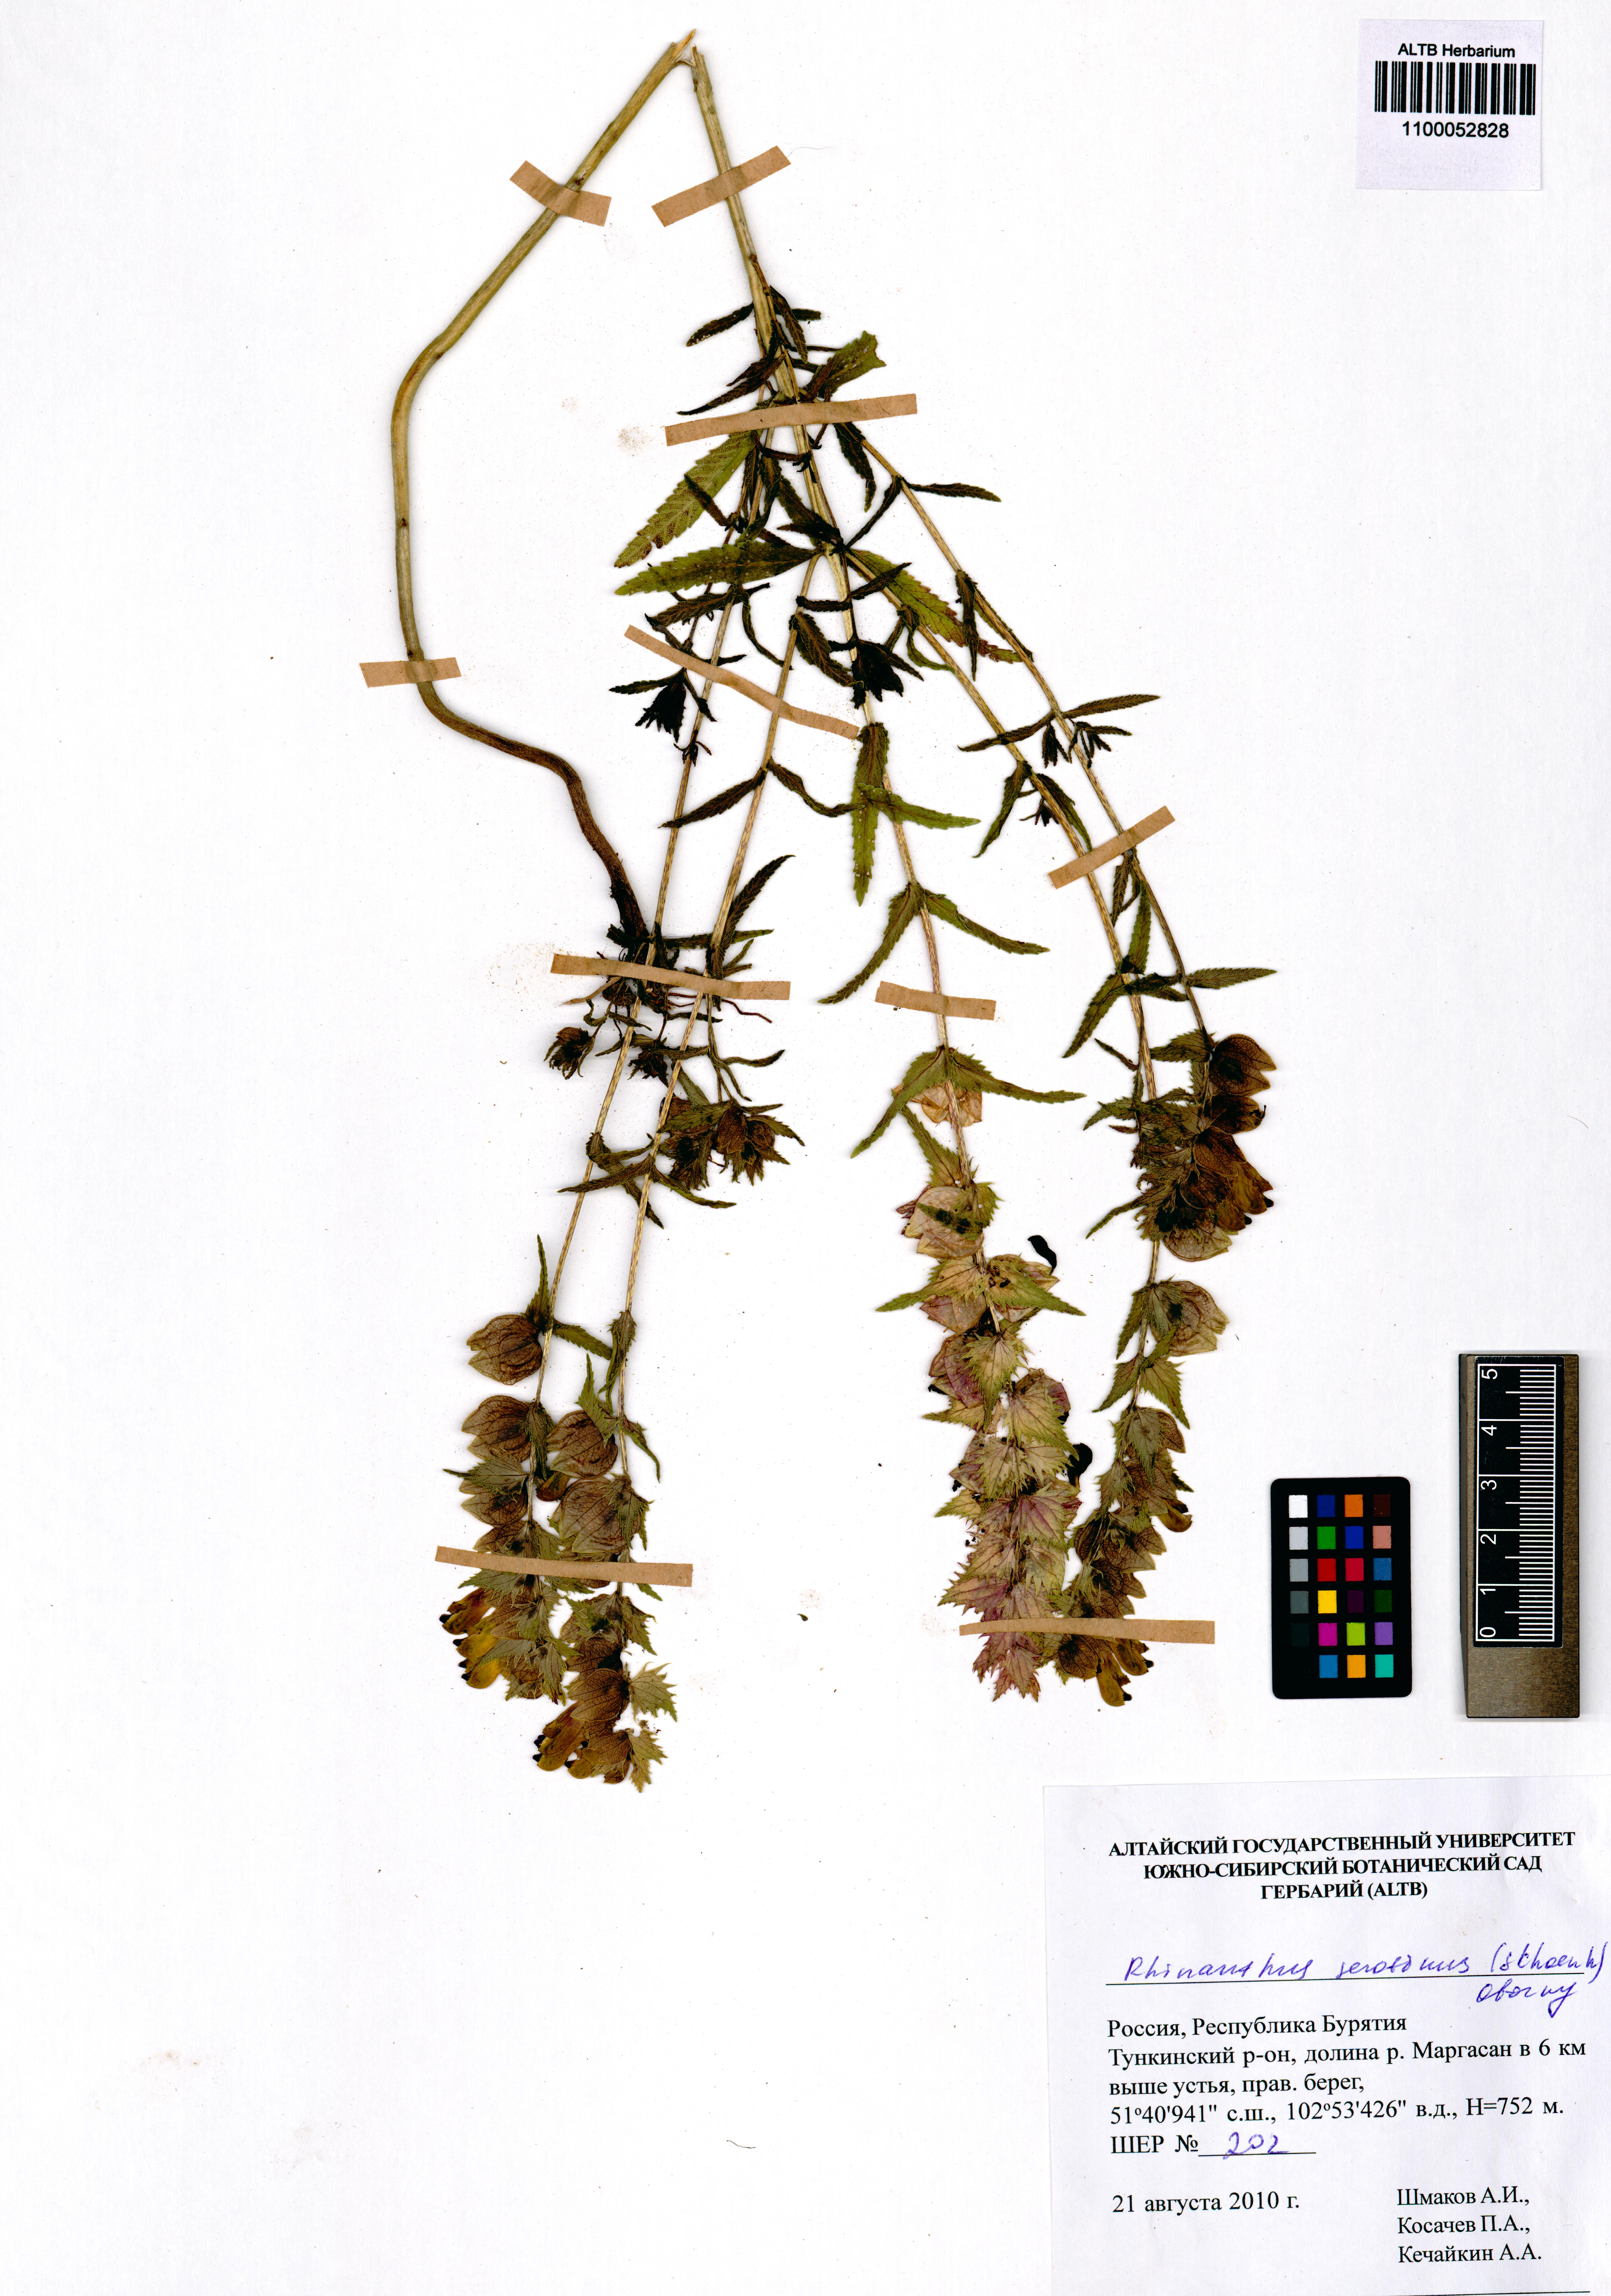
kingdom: Plantae
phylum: Tracheophyta
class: Magnoliopsida
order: Lamiales
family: Orobanchaceae
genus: Rhinanthus
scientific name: Rhinanthus serotinus
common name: Late-flowering yellow rattle
